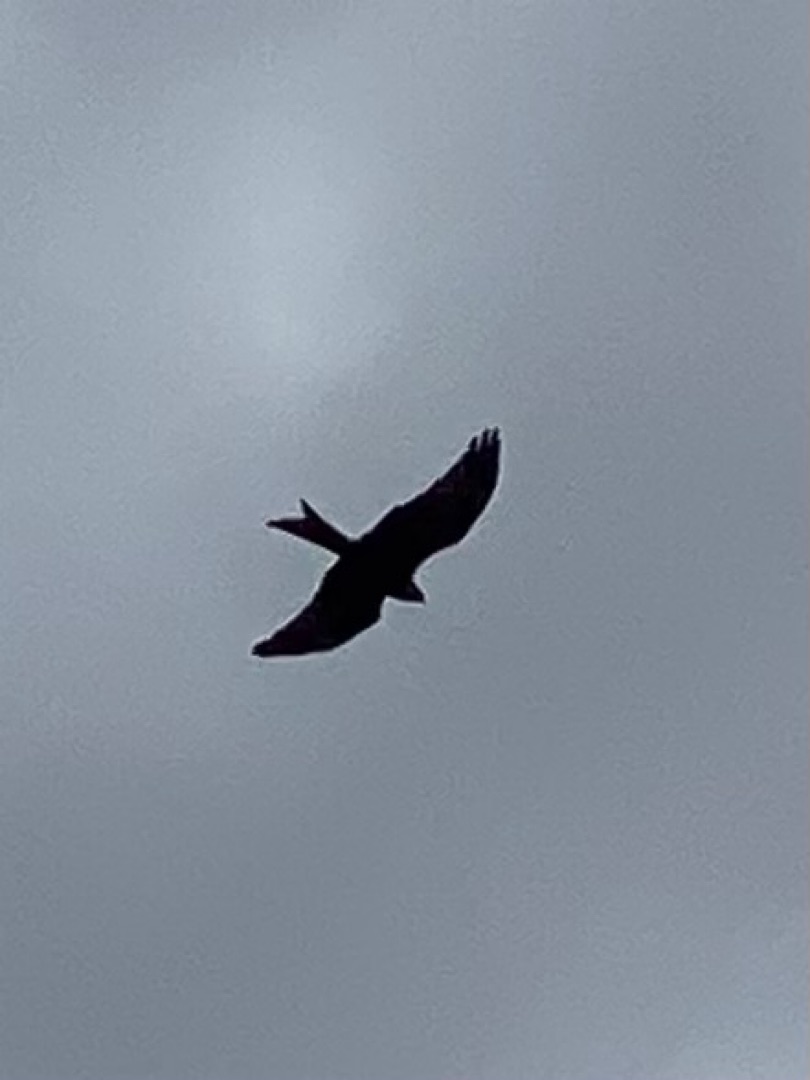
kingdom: Animalia
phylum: Chordata
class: Aves
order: Accipitriformes
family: Accipitridae
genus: Milvus
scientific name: Milvus milvus
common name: Rød glente
